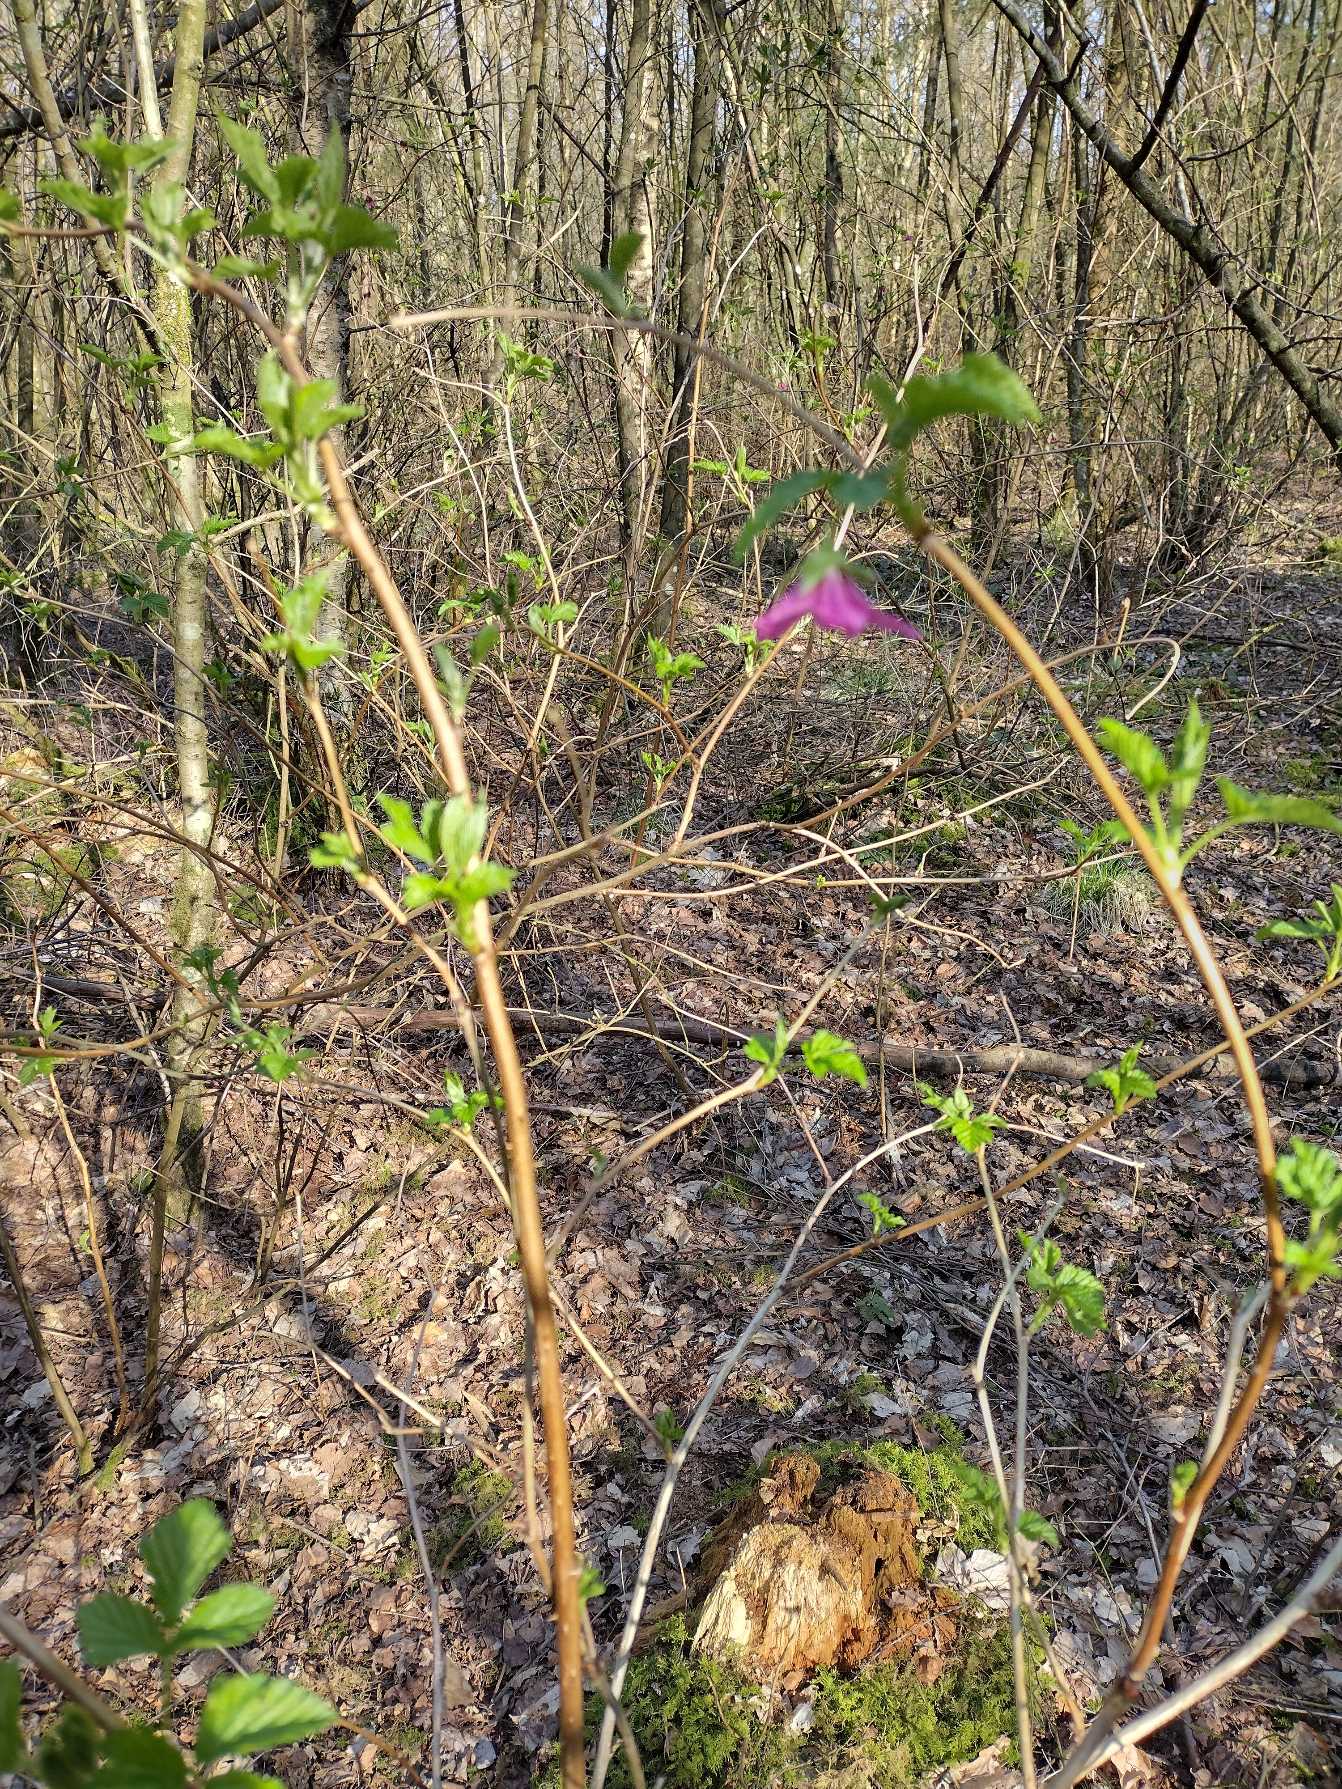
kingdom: Plantae
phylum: Tracheophyta
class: Magnoliopsida
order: Rosales
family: Rosaceae
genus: Rubus
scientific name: Rubus spectabilis
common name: Laksebær
